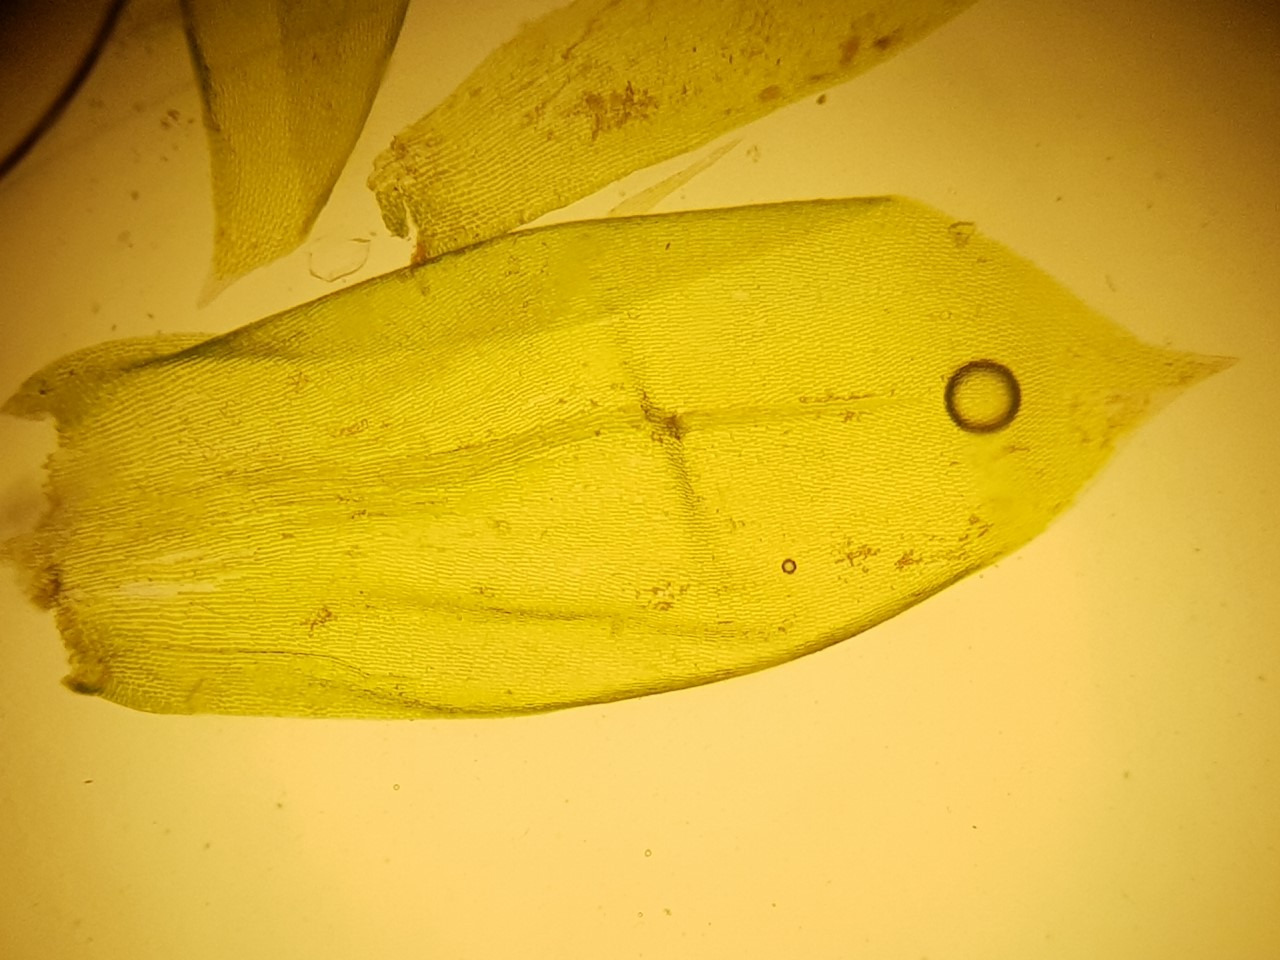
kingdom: Plantae
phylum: Bryophyta
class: Bryopsida
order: Hypnales
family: Lembophyllaceae
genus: Isothecium
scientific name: Isothecium alopecuroides
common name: Stor stammemos
